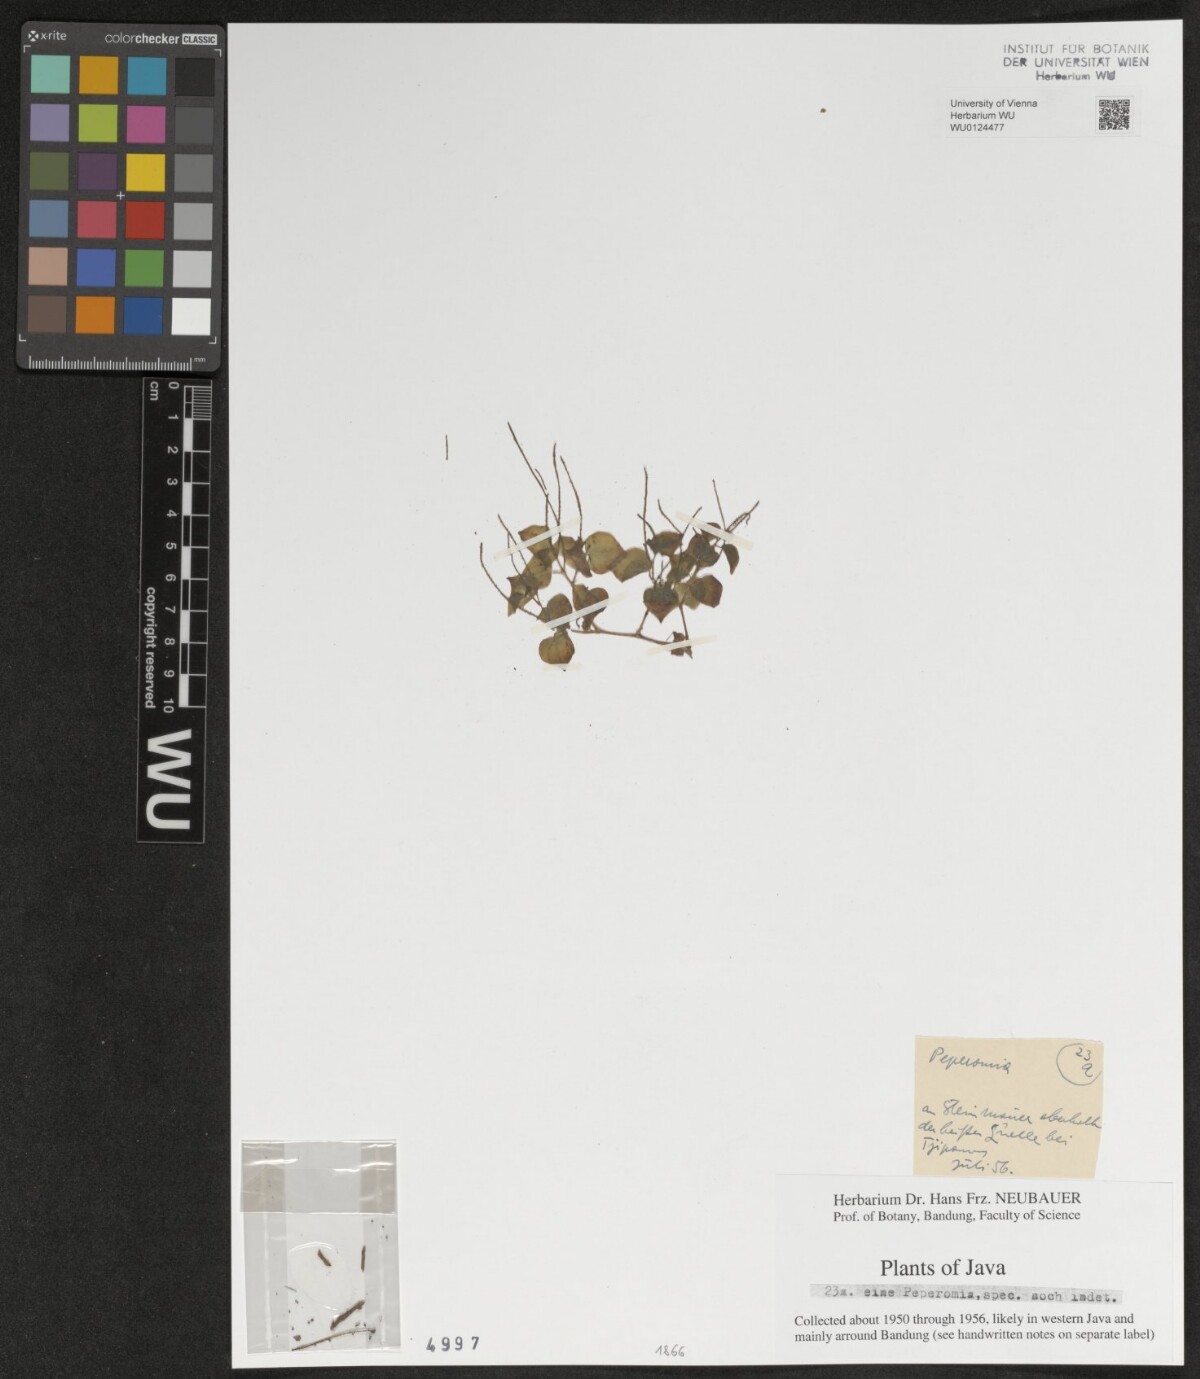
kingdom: Plantae
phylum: Tracheophyta
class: Magnoliopsida
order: Piperales
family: Piperaceae
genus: Peperomia
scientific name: Peperomia
